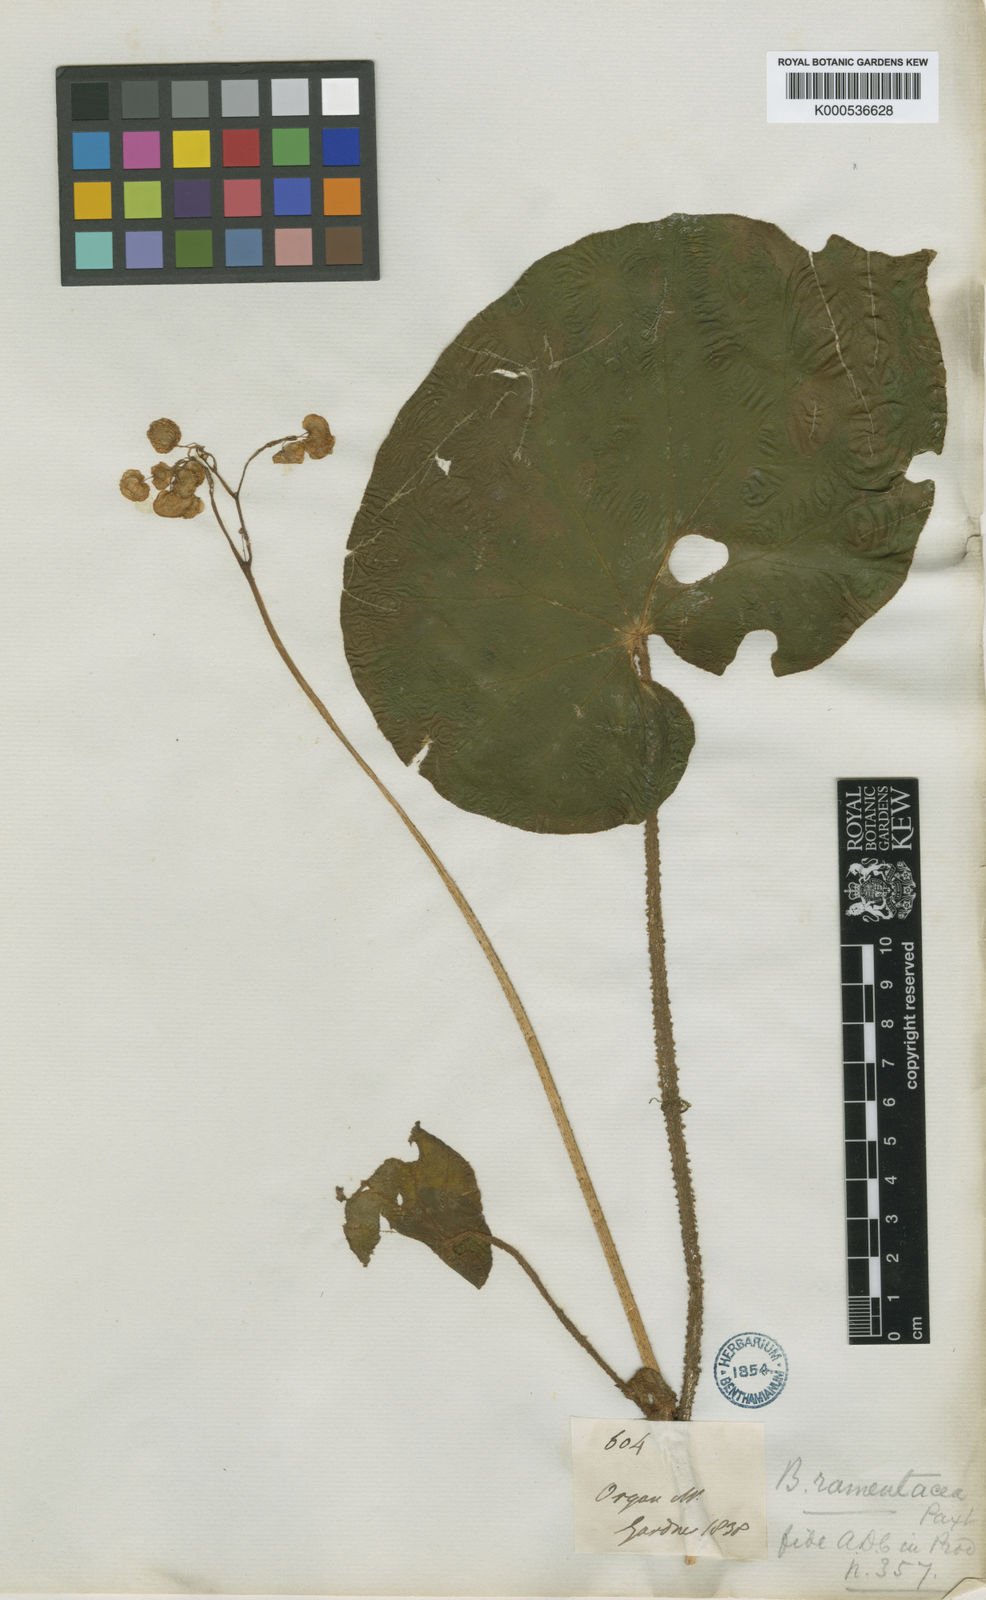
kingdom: Plantae
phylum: Tracheophyta
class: Magnoliopsida
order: Cucurbitales
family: Begoniaceae
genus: Begonia
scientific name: Begonia ramentacea
